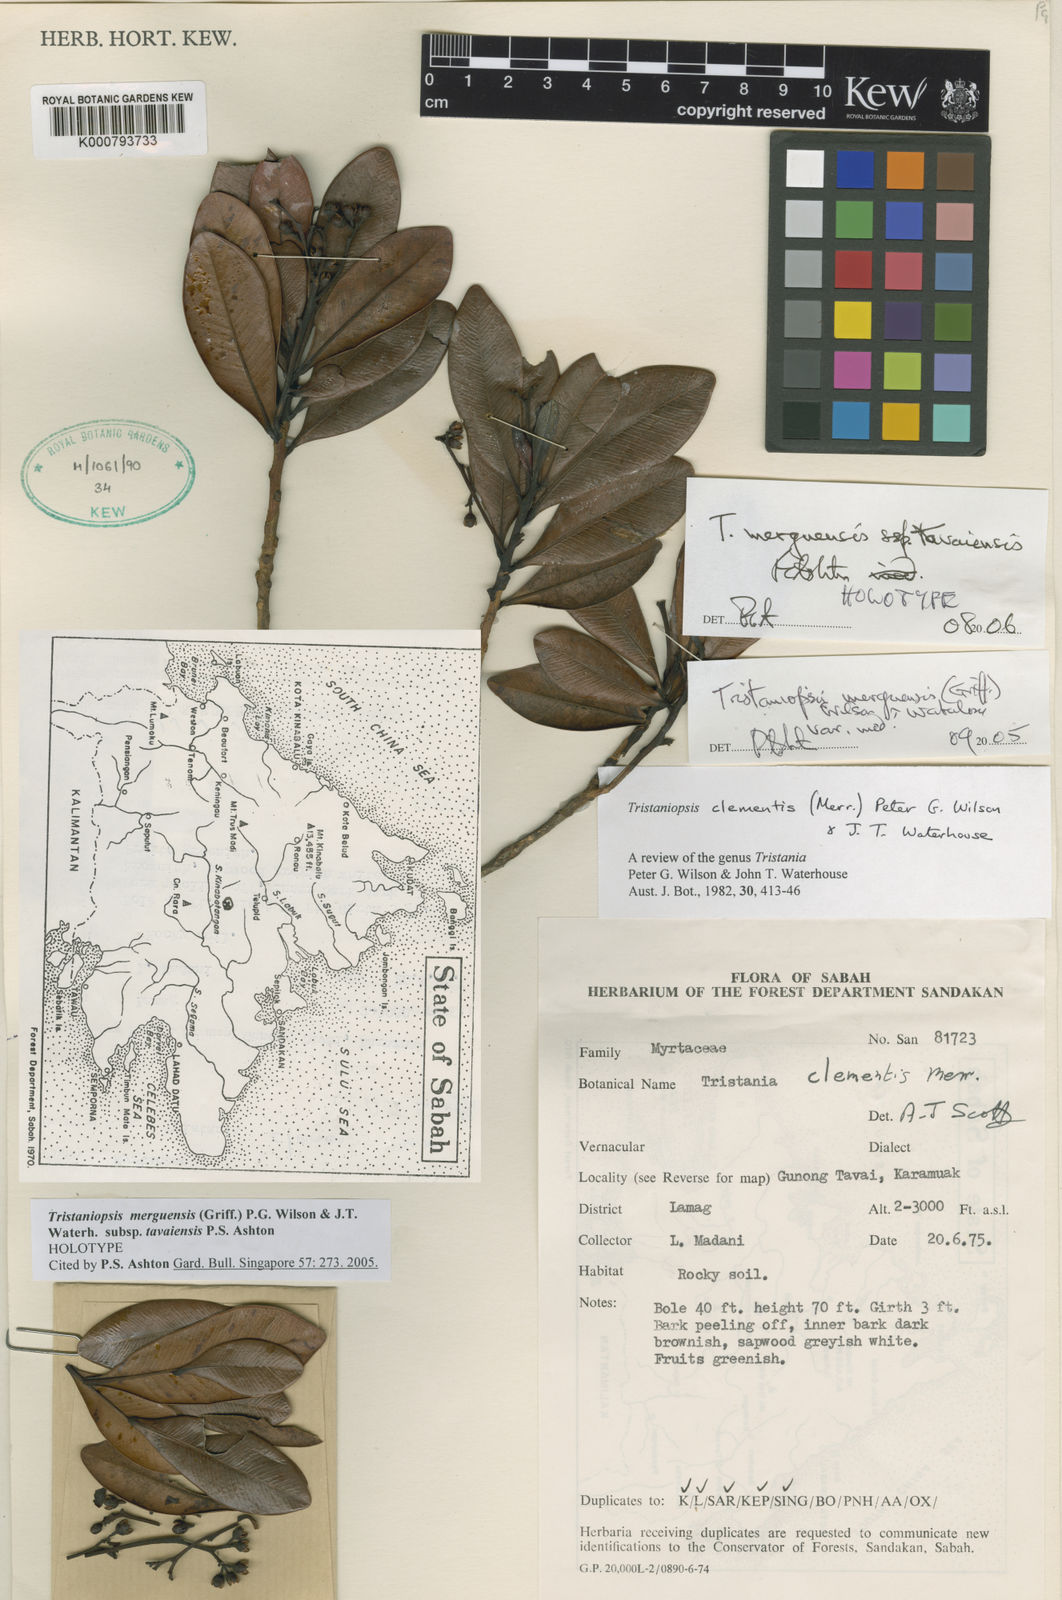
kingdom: Plantae
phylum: Tracheophyta
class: Magnoliopsida
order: Myrtales
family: Myrtaceae
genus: Tristaniopsis
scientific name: Tristaniopsis merguensis
